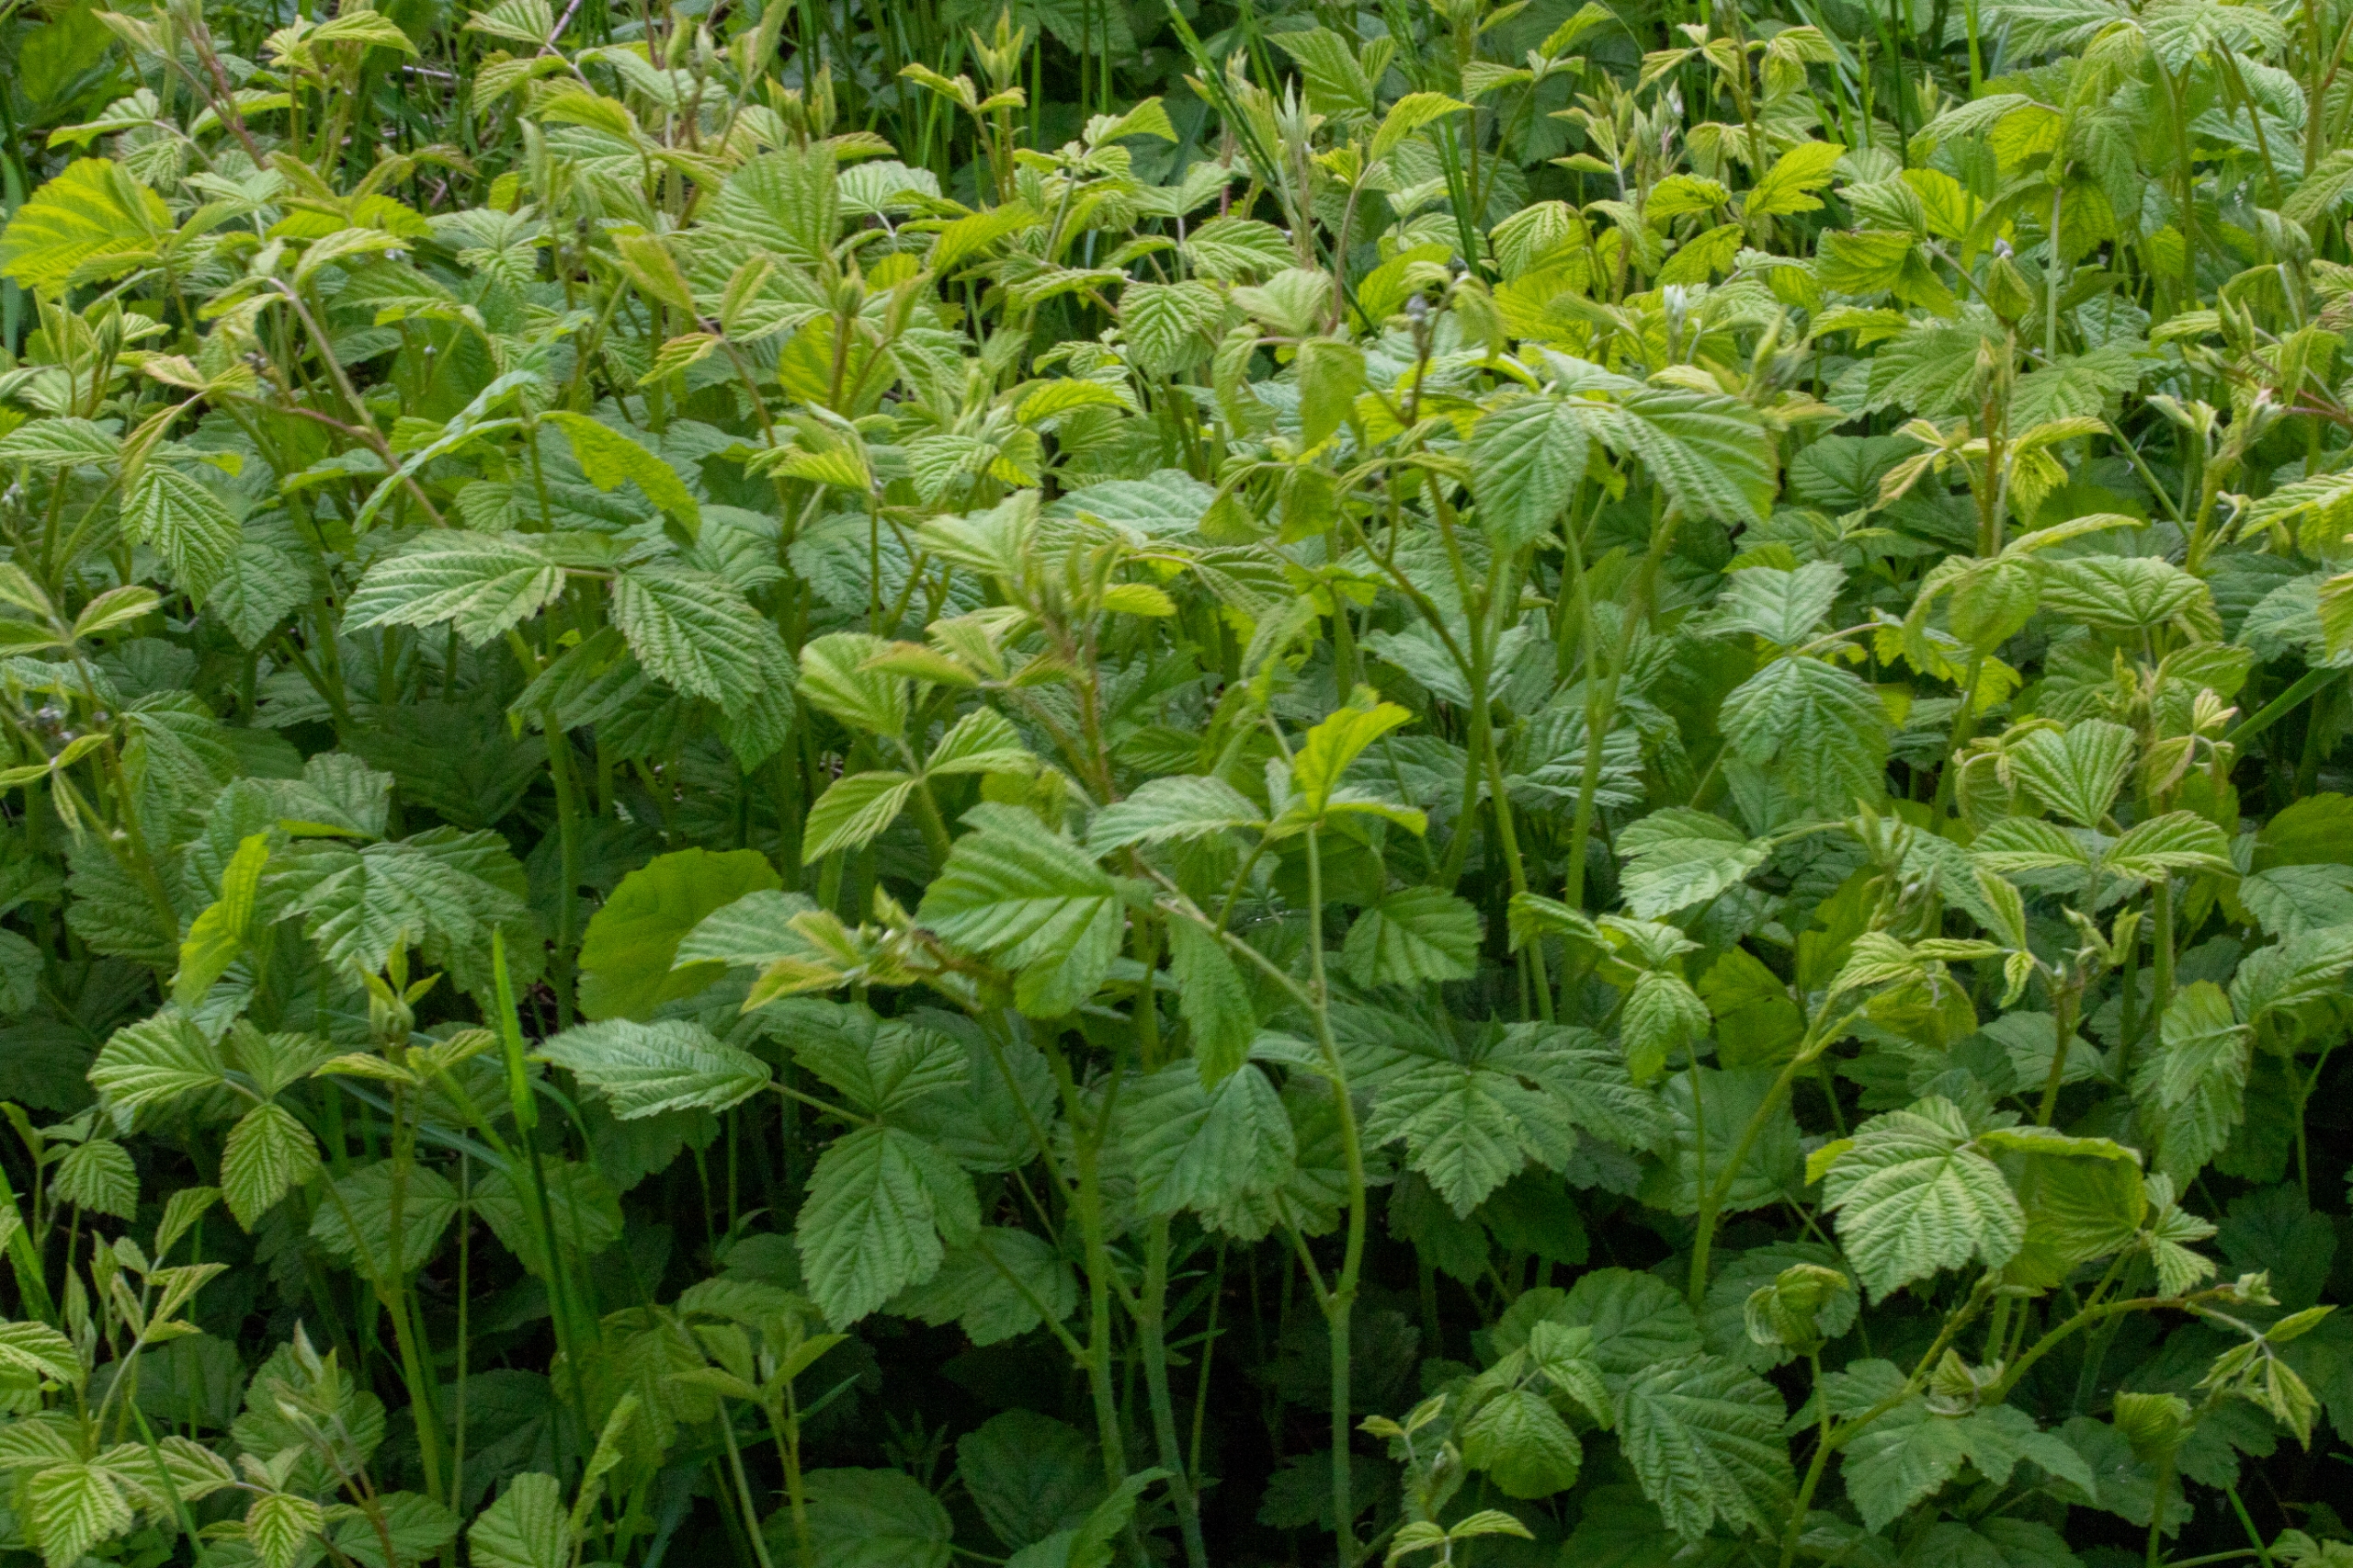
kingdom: Plantae
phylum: Tracheophyta
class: Magnoliopsida
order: Rosales
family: Rosaceae
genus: Rubus
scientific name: Rubus idaeus
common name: Hindbær
